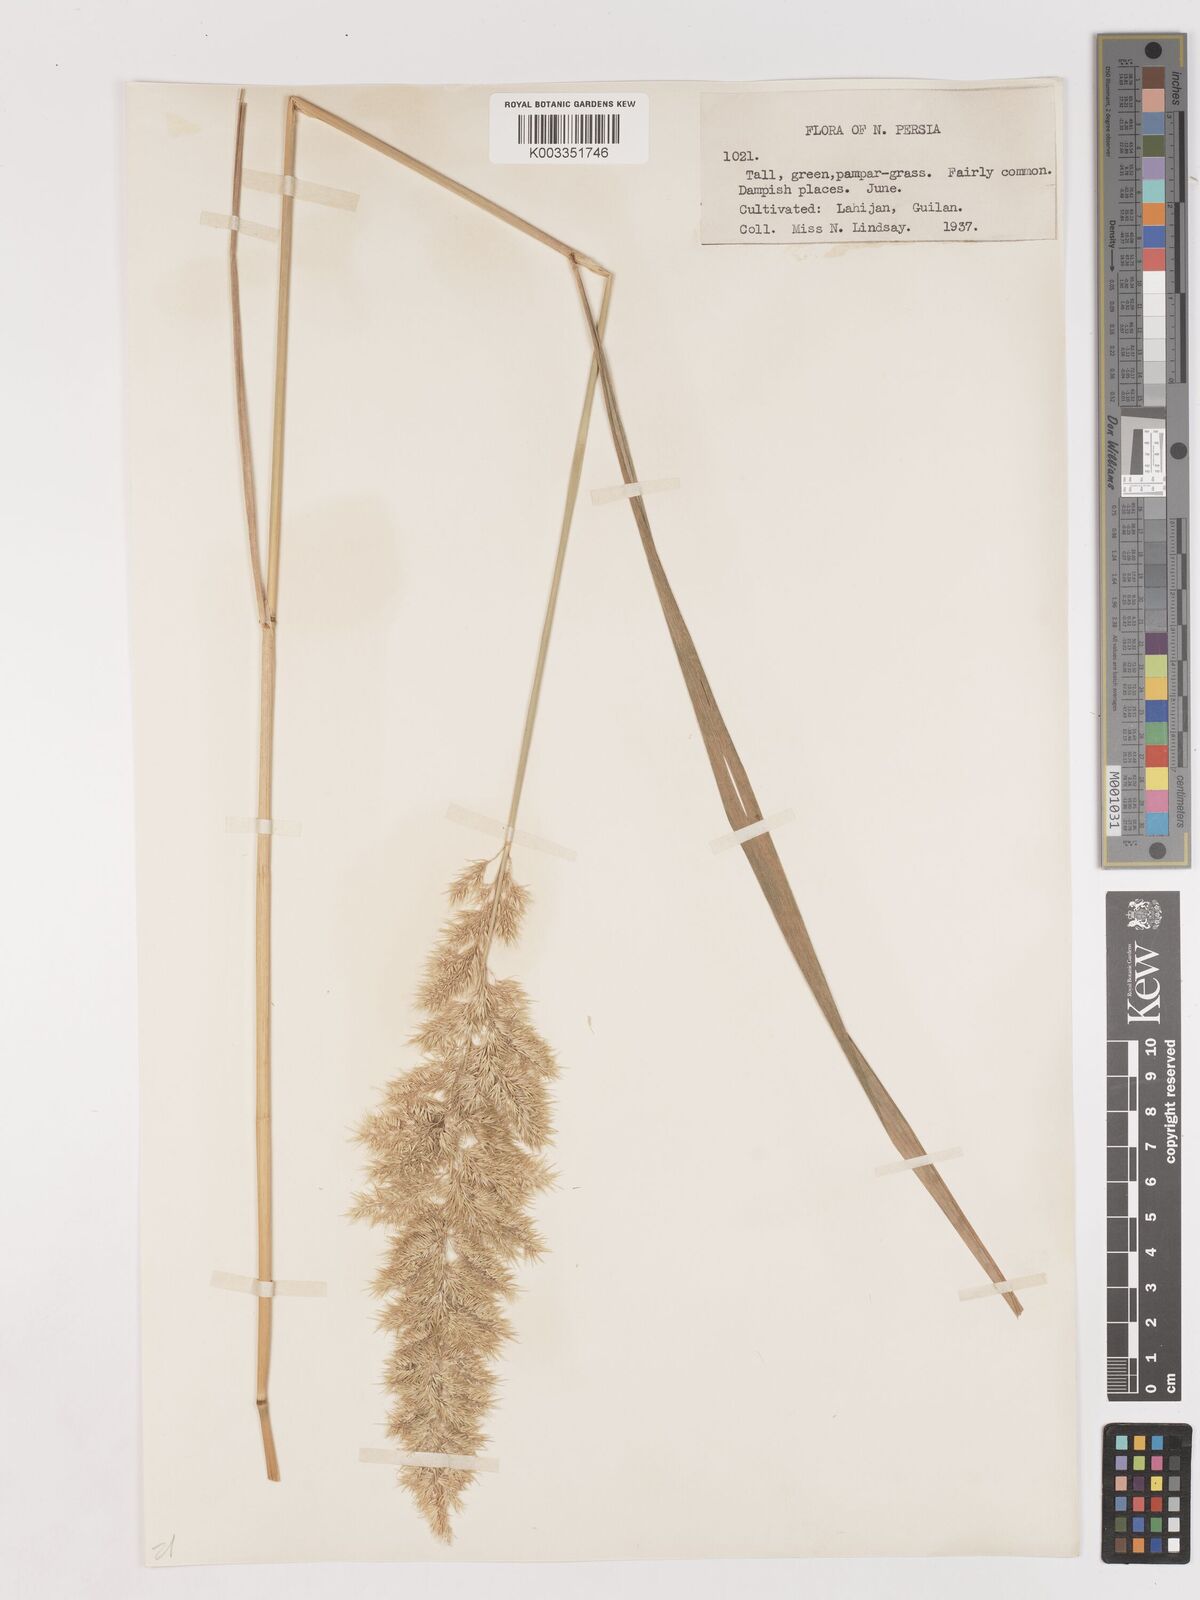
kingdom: Plantae
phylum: Tracheophyta
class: Liliopsida
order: Poales
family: Poaceae
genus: Calamagrostis
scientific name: Calamagrostis
